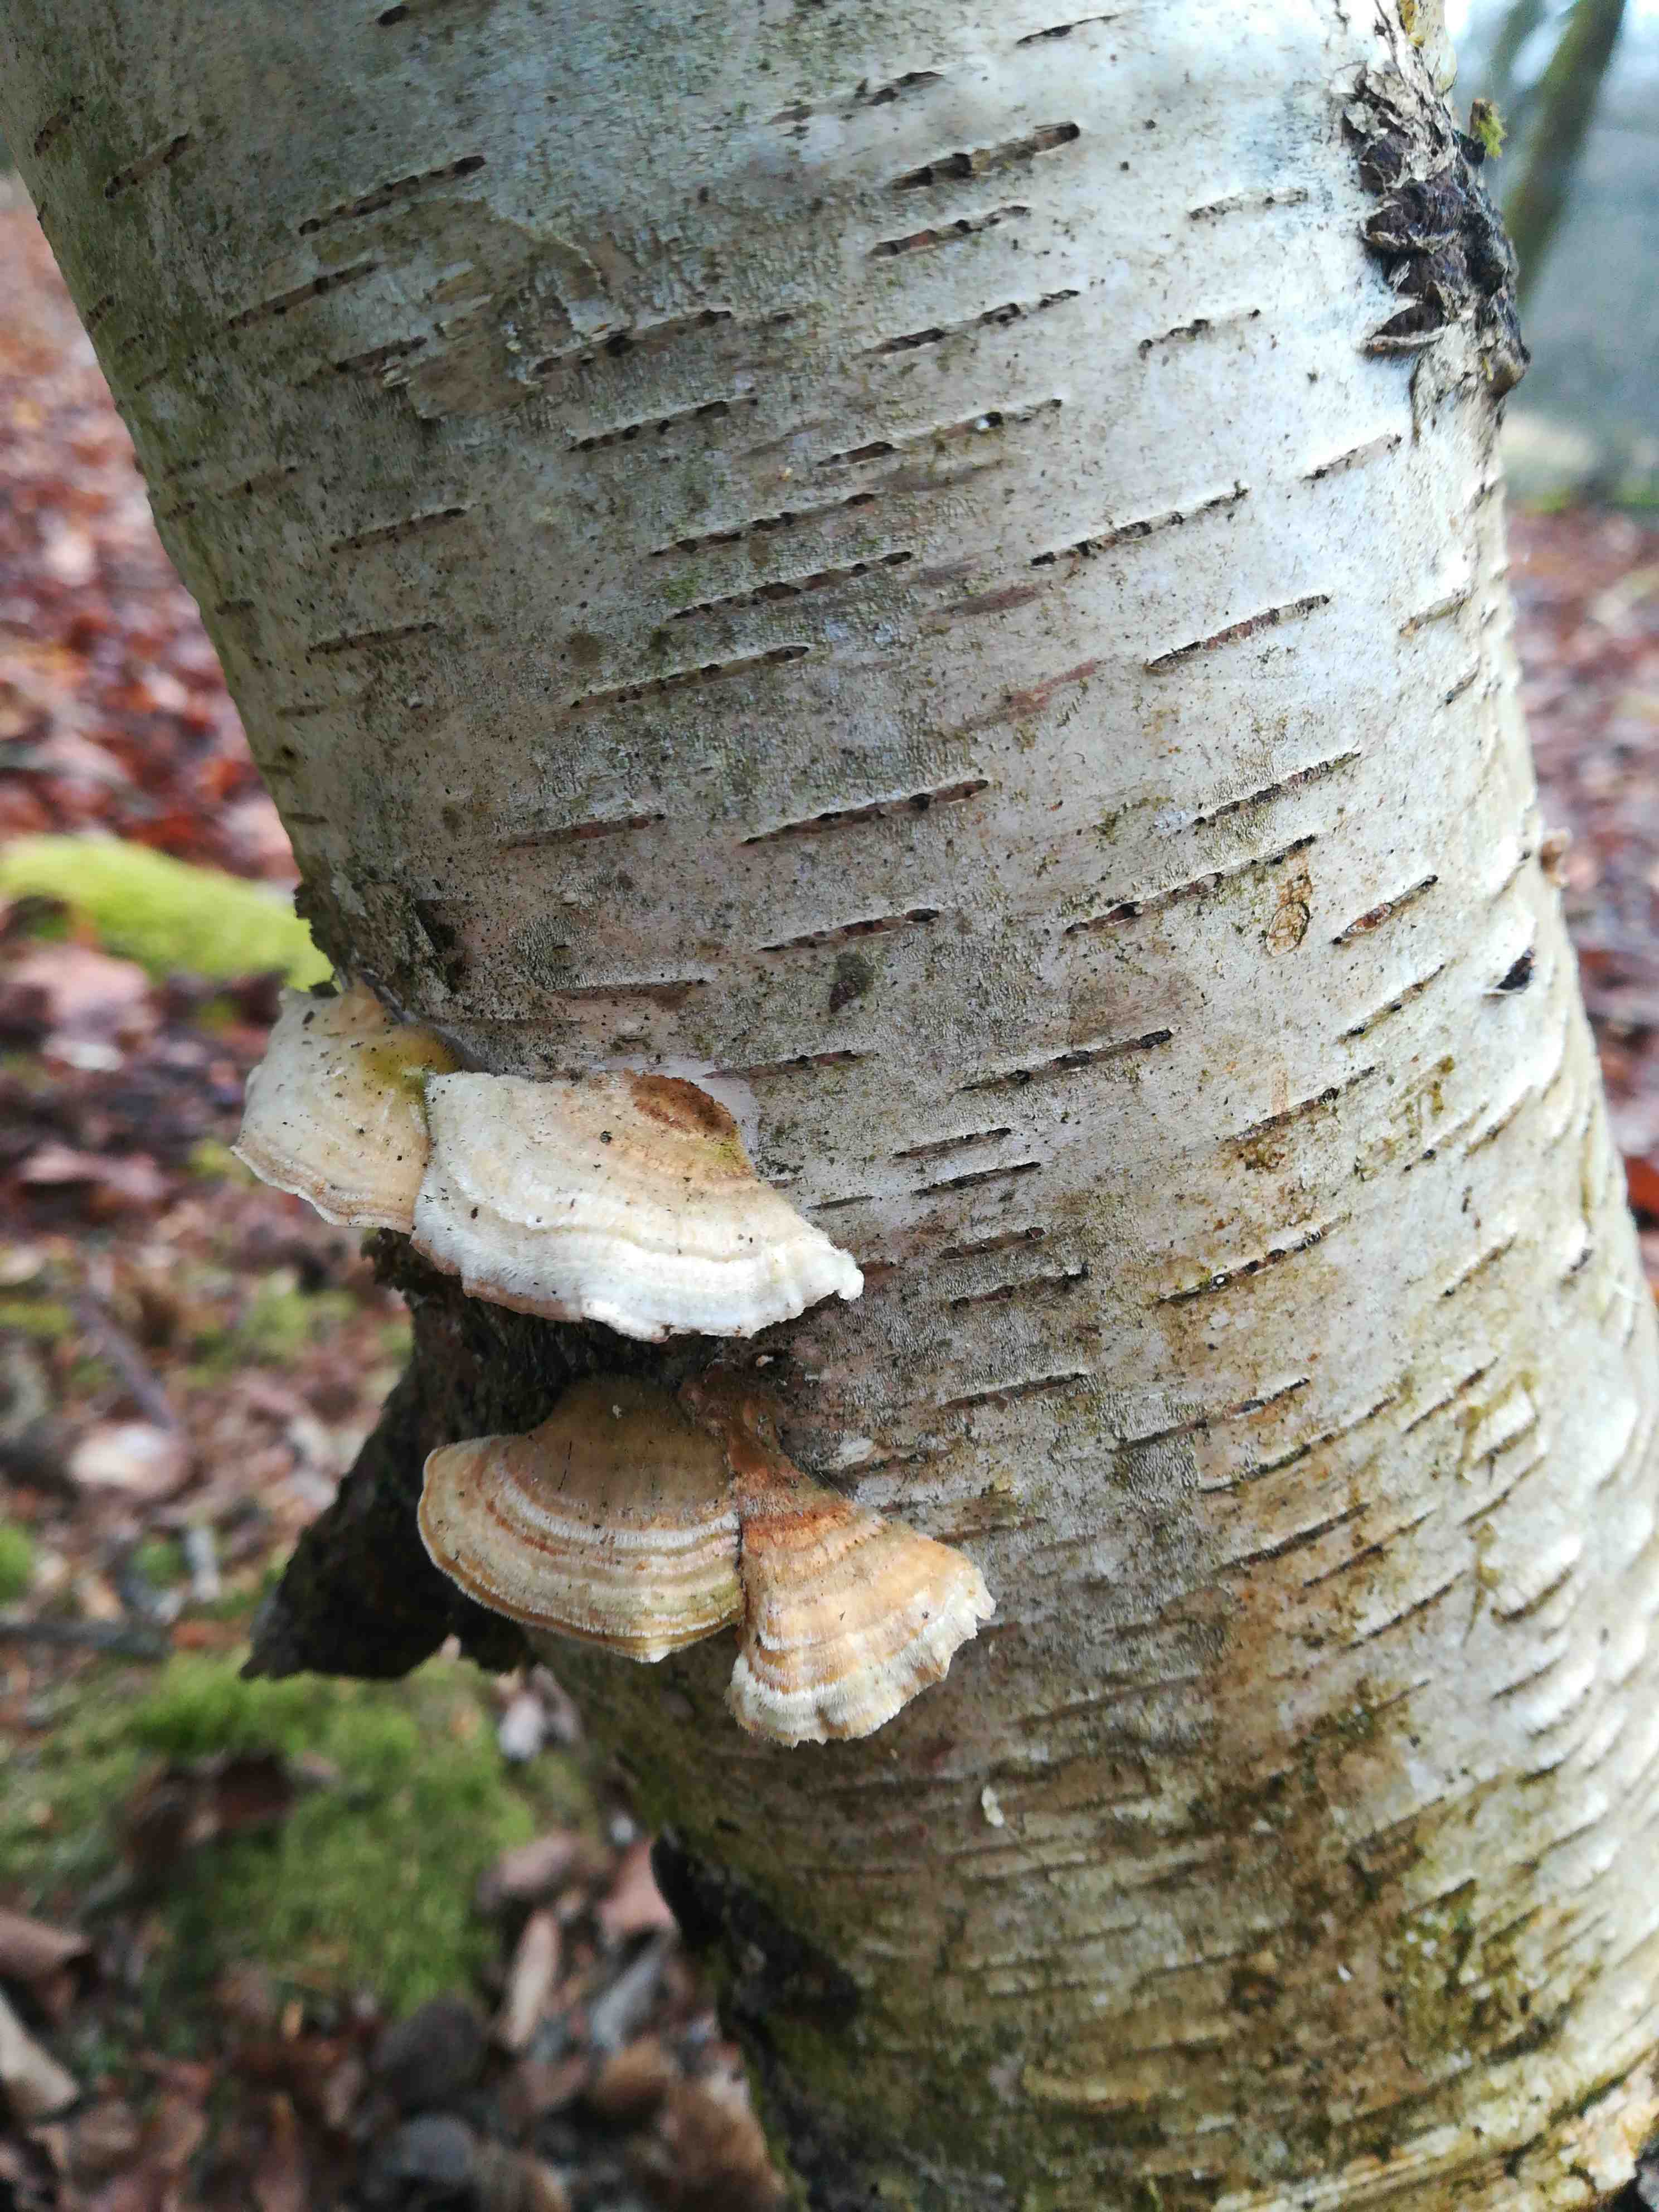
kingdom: Fungi
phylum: Basidiomycota
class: Agaricomycetes
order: Polyporales
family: Polyporaceae
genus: Trametes
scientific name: Trametes
